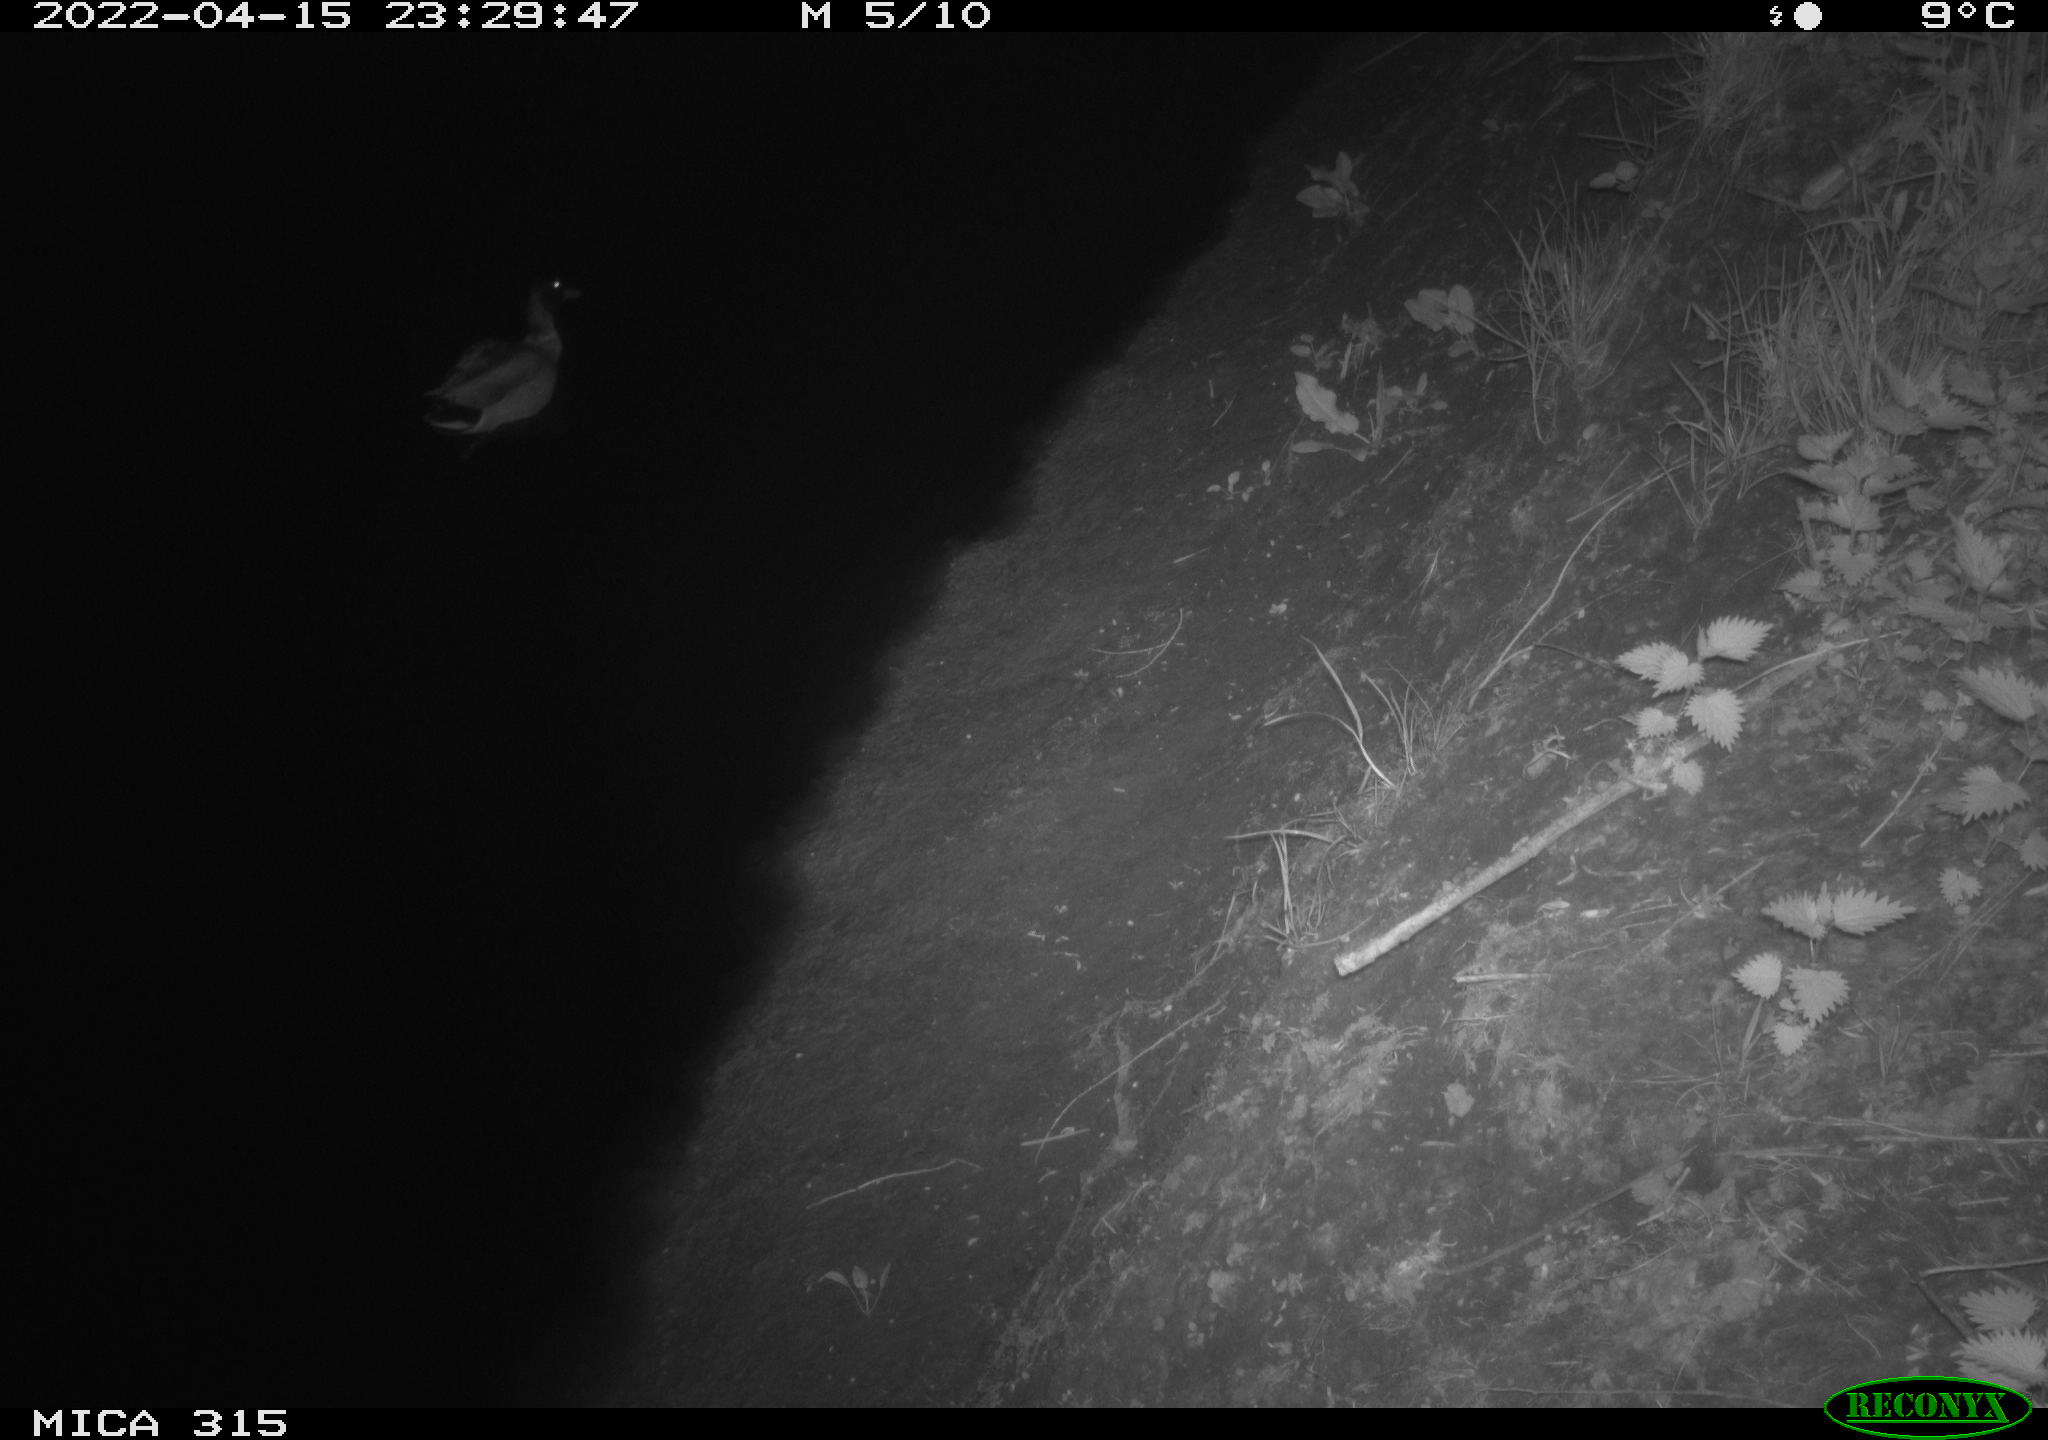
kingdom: Animalia
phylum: Chordata
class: Aves
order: Anseriformes
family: Anatidae
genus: Anas
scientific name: Anas platyrhynchos
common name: Mallard
